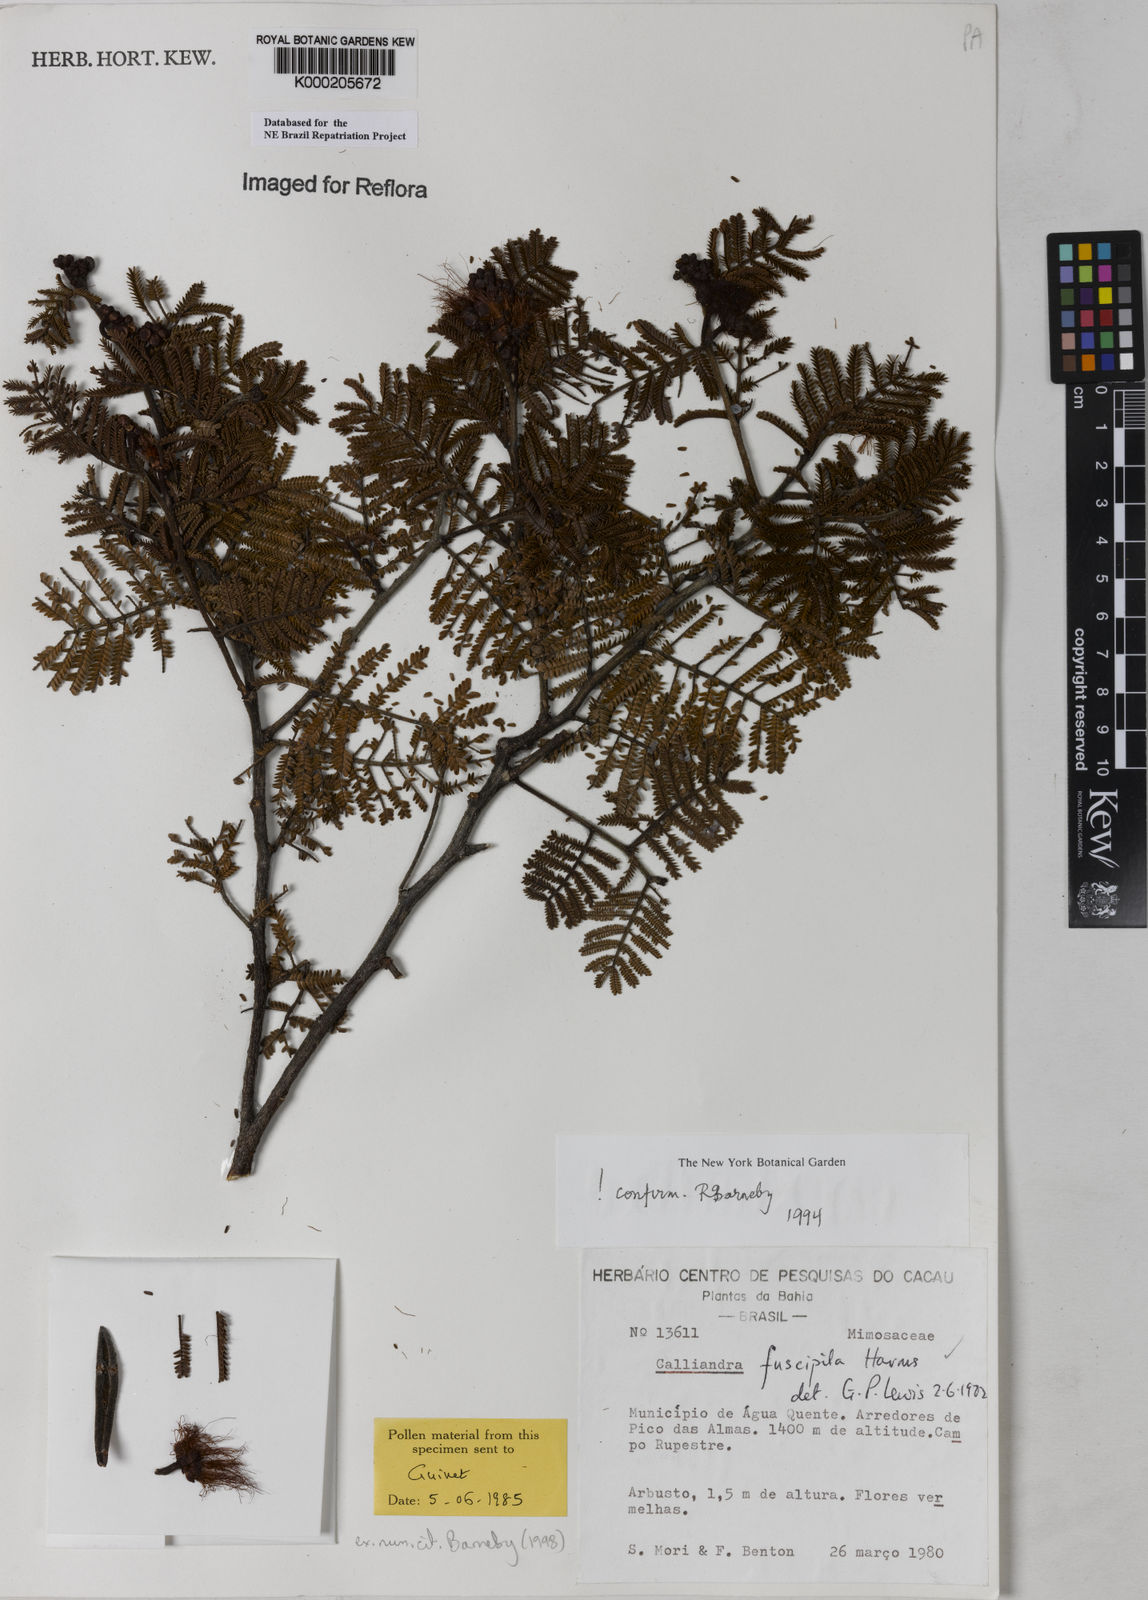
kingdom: Plantae
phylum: Tracheophyta
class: Magnoliopsida
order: Fabales
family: Fabaceae
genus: Calliandra
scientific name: Calliandra fuscipila
